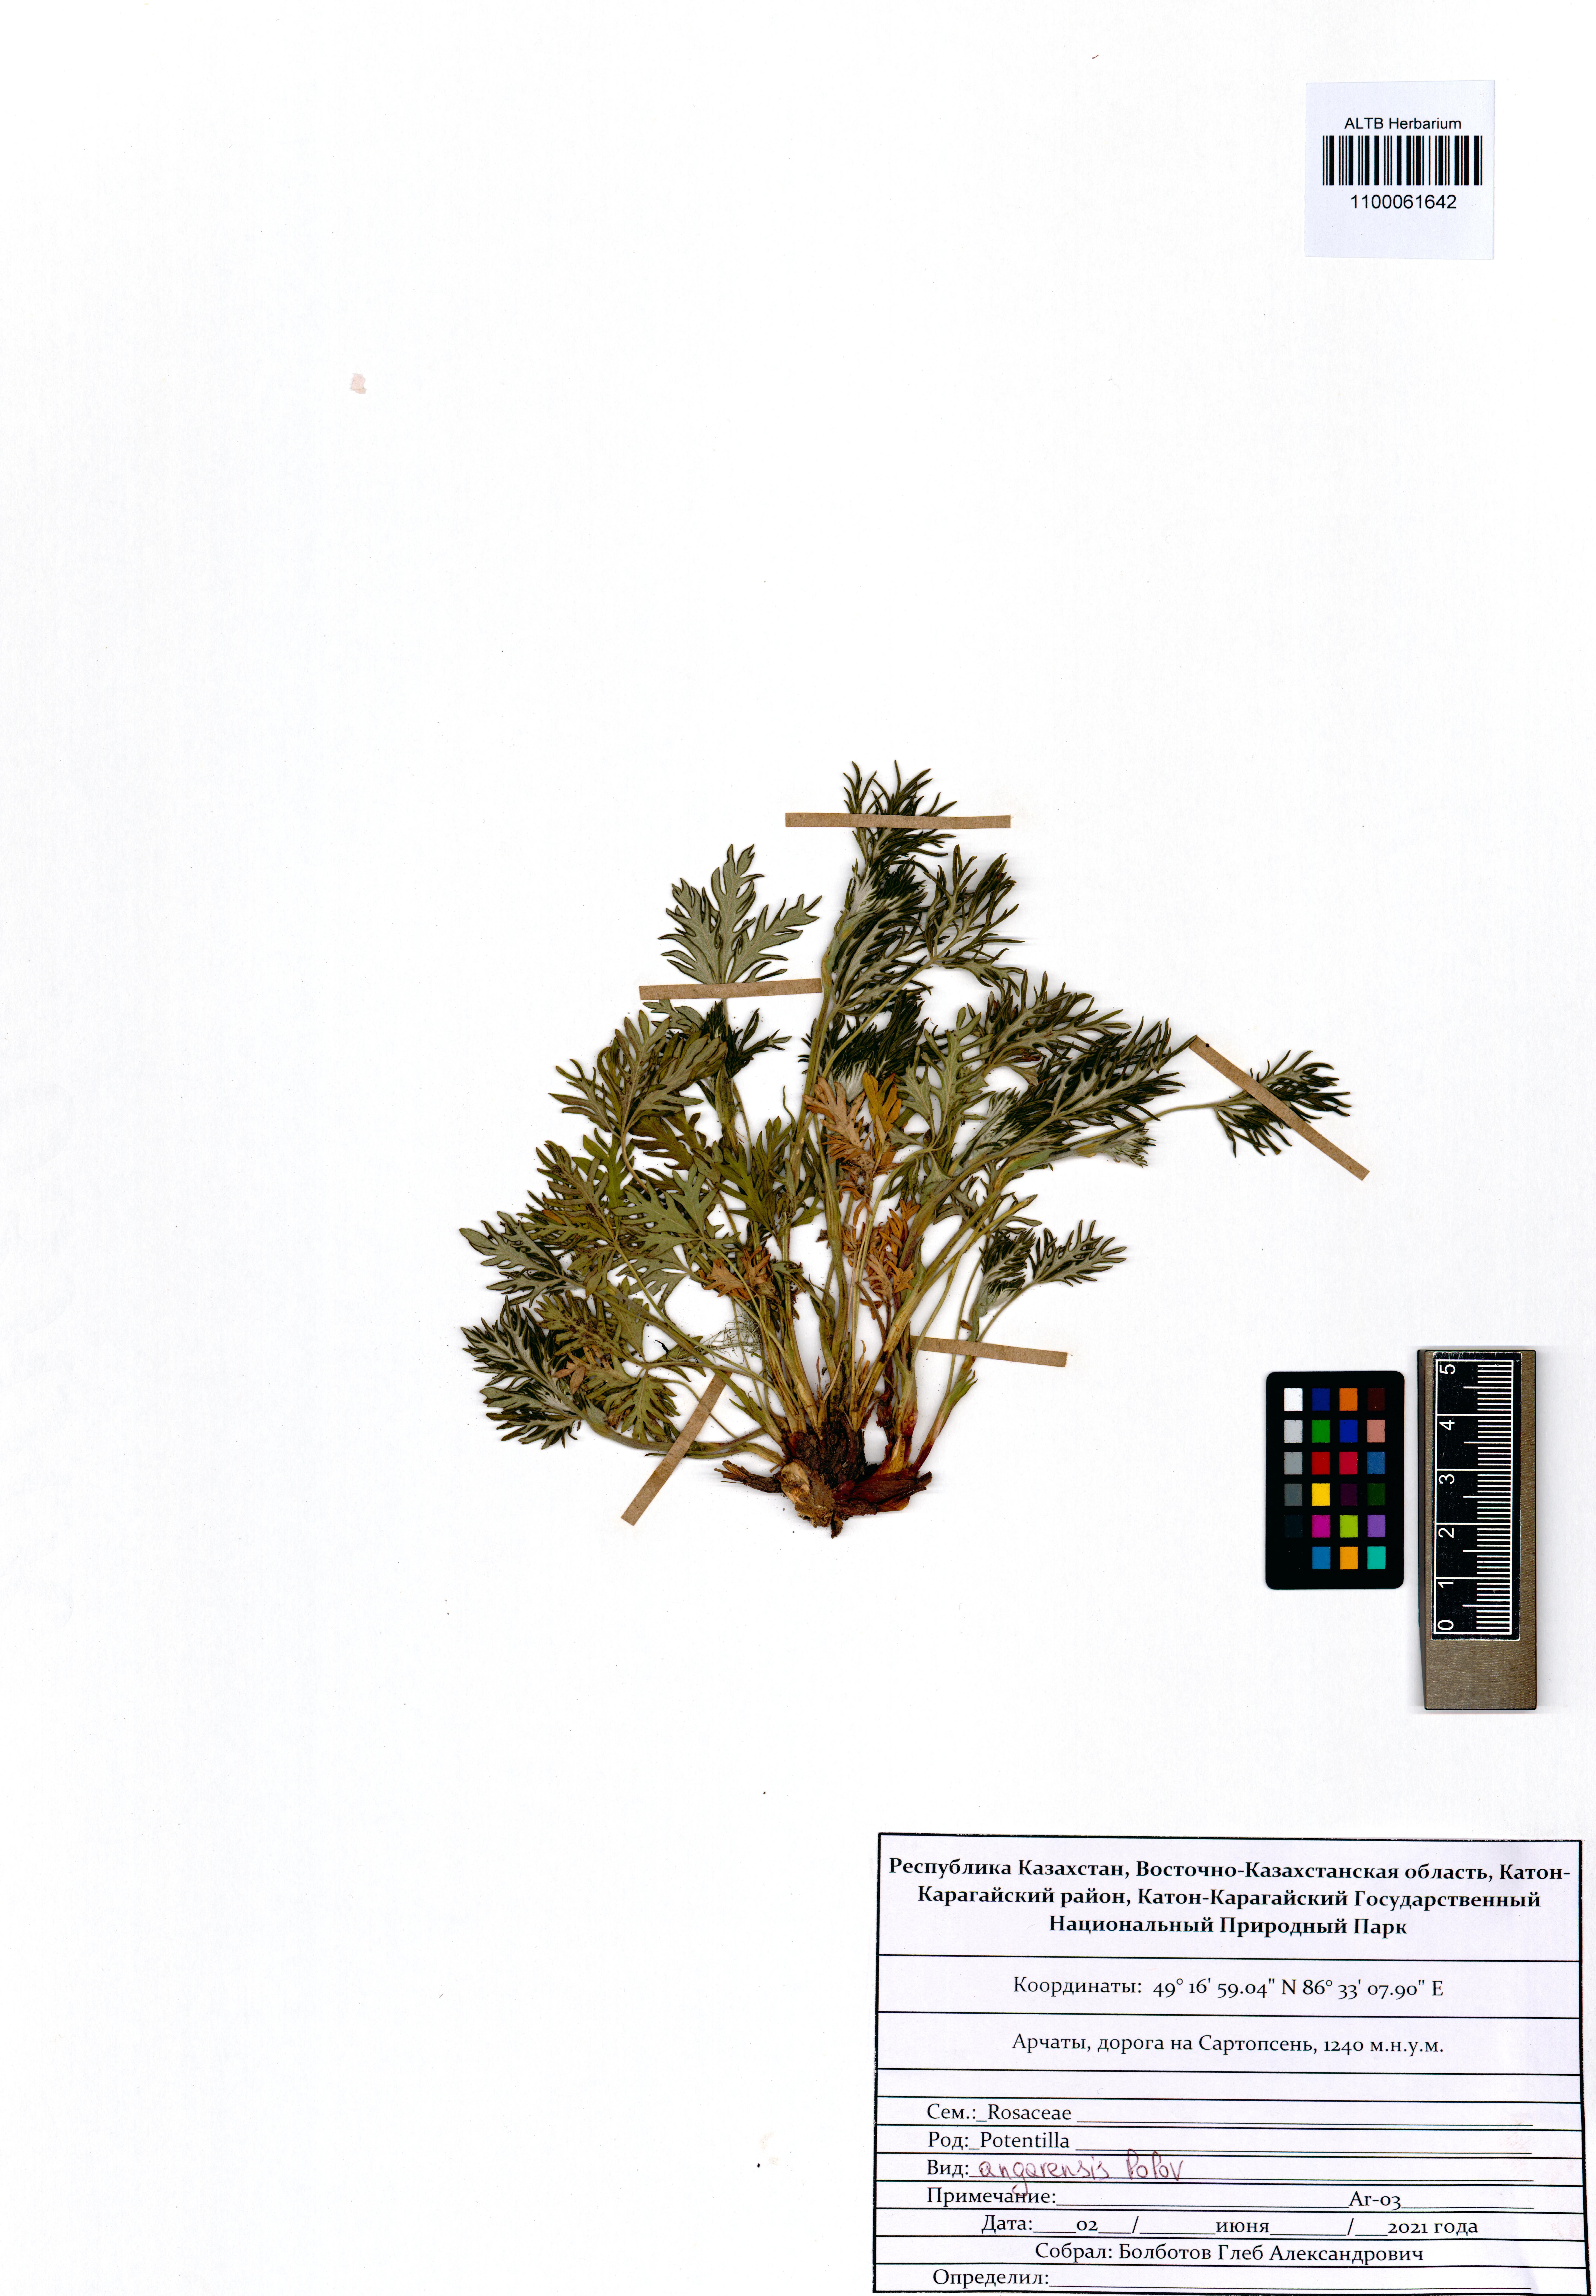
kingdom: Plantae
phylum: Tracheophyta
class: Magnoliopsida
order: Rosales
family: Rosaceae
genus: Potentilla
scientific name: Potentilla angarensis
